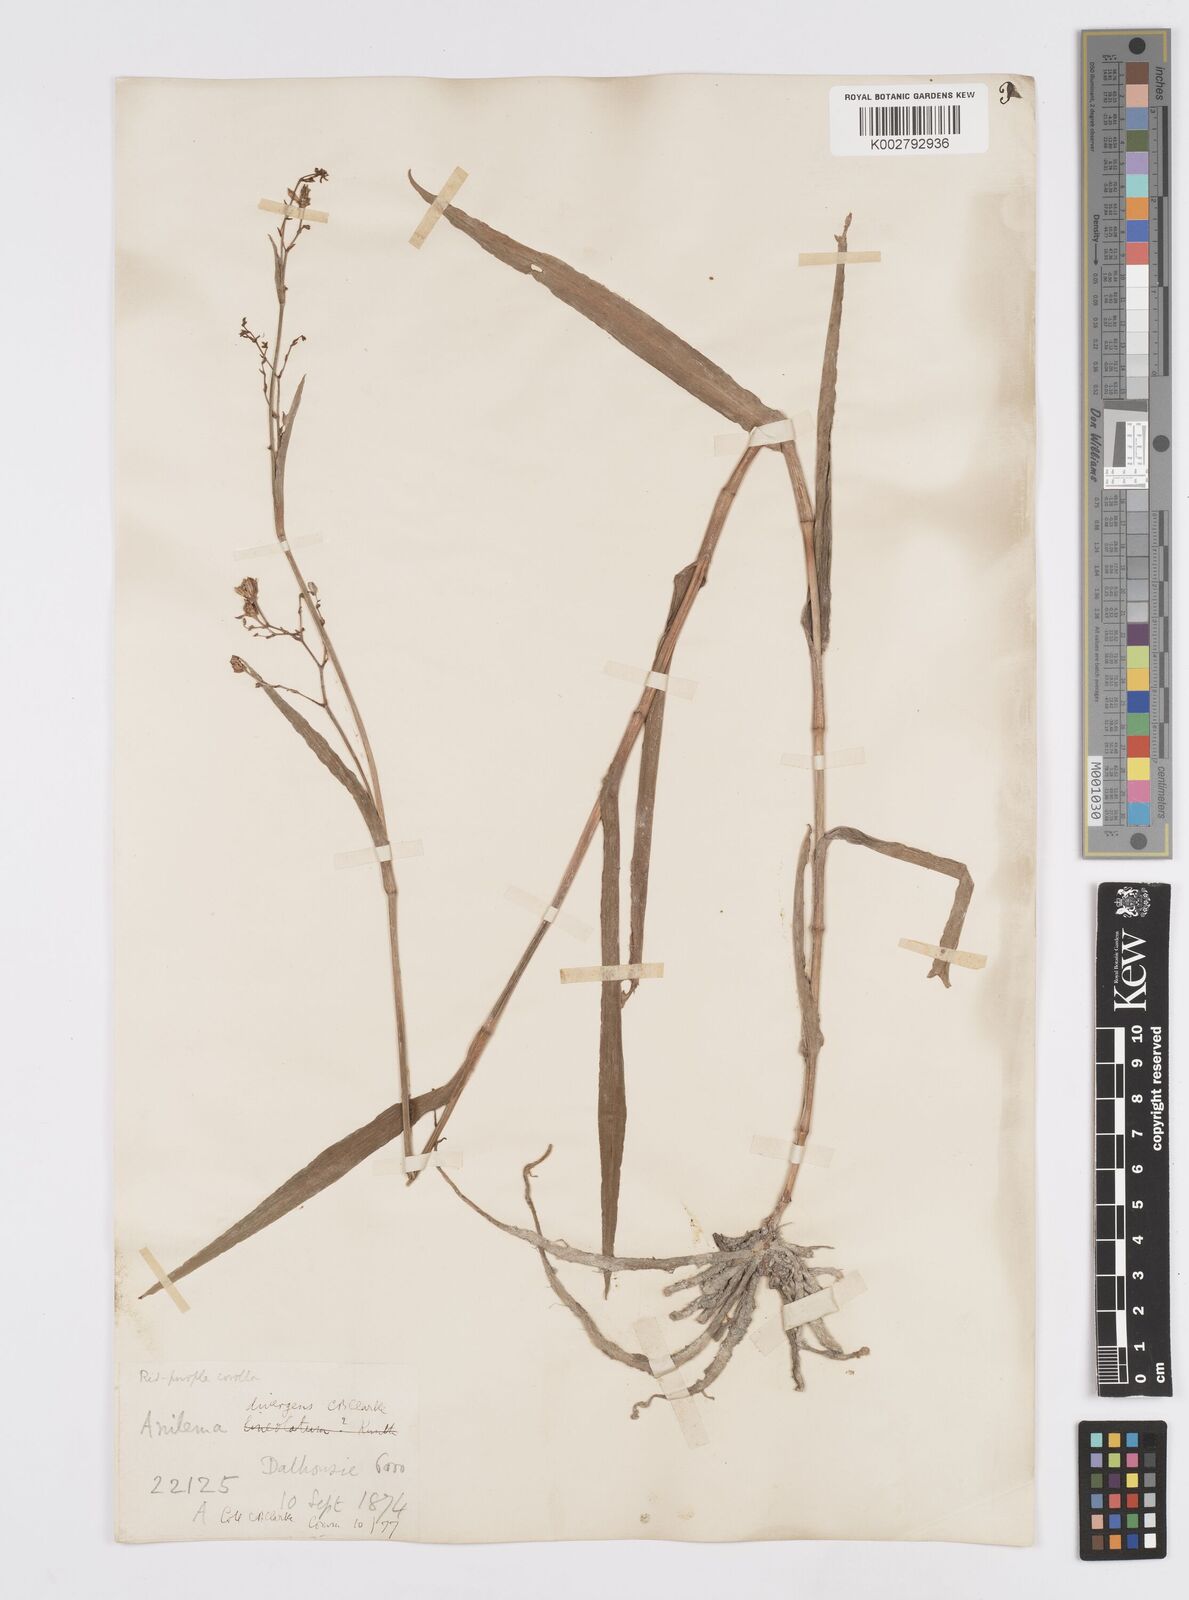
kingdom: Plantae
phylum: Tracheophyta
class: Liliopsida
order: Commelinales
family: Commelinaceae
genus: Murdannia
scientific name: Murdannia divergens
